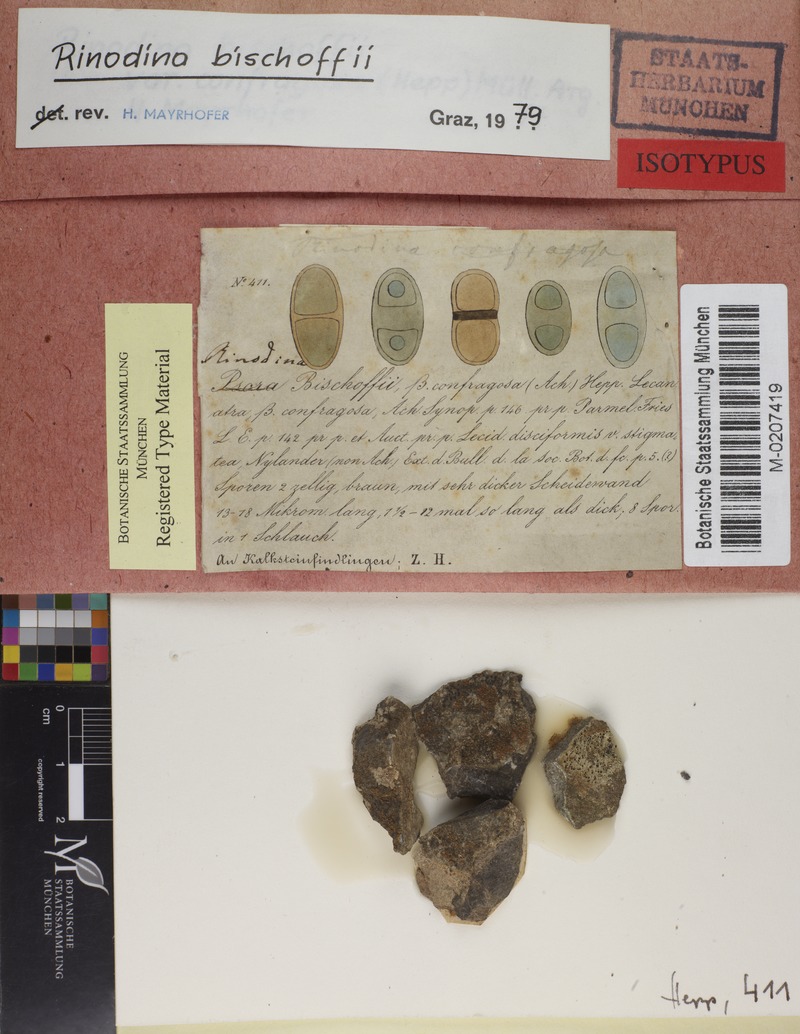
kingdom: Fungi
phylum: Ascomycota
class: Lecanoromycetes
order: Caliciales
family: Physciaceae
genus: Rinodina
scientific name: Rinodina bischoffii
